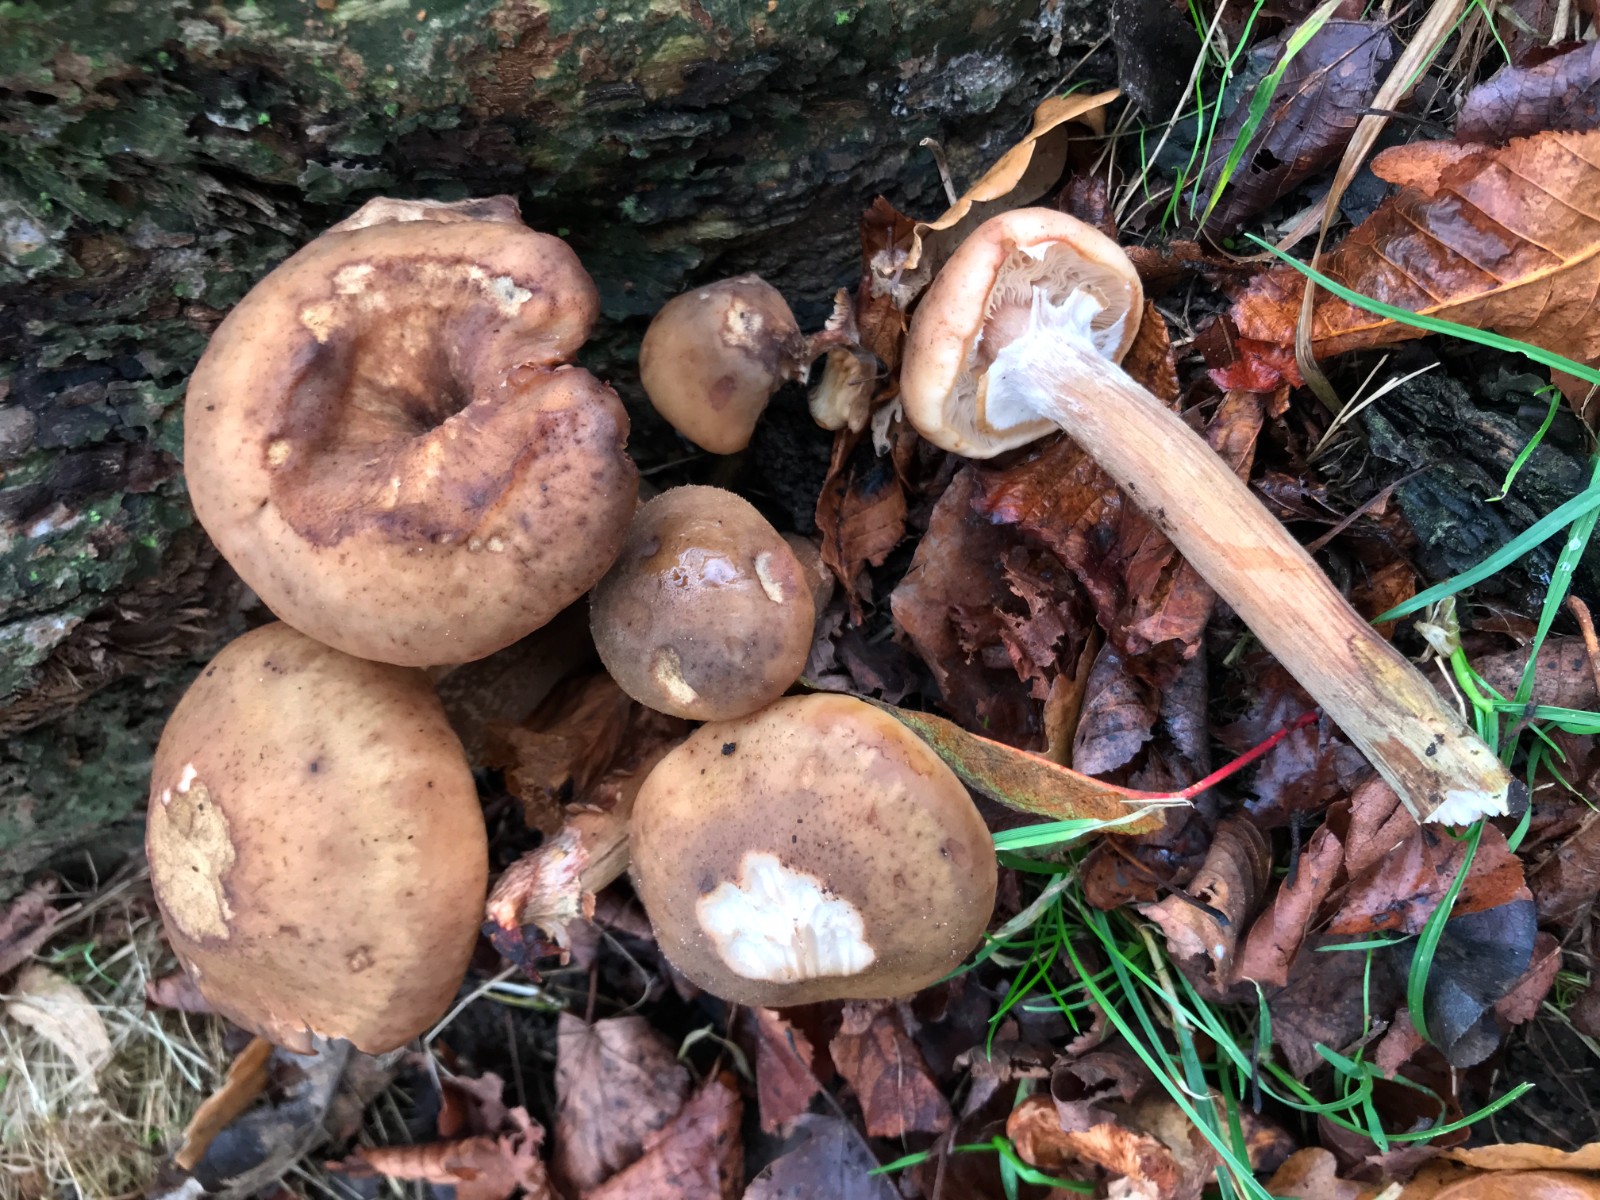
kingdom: Fungi
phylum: Basidiomycota
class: Agaricomycetes
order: Agaricales
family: Physalacriaceae
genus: Armillaria
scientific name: Armillaria mellea
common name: ægte honningsvamp
